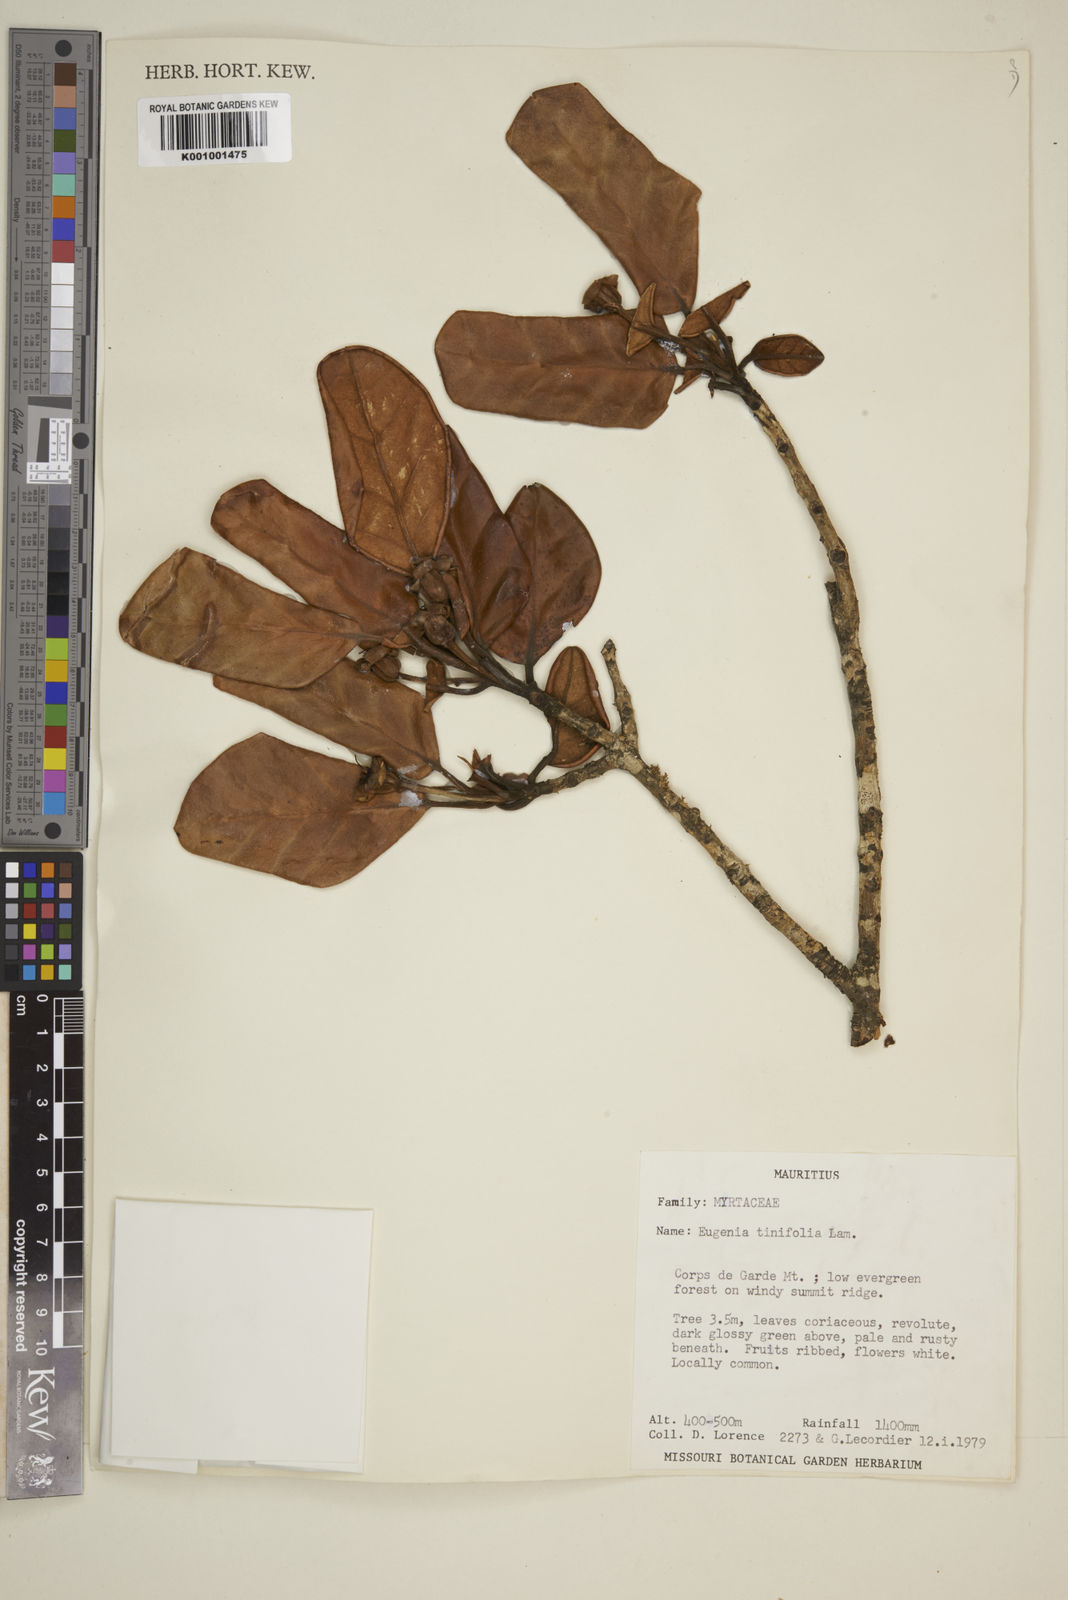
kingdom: Plantae
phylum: Tracheophyta
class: Magnoliopsida
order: Myrtales
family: Myrtaceae
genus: Eugenia
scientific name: Eugenia mespiloides
